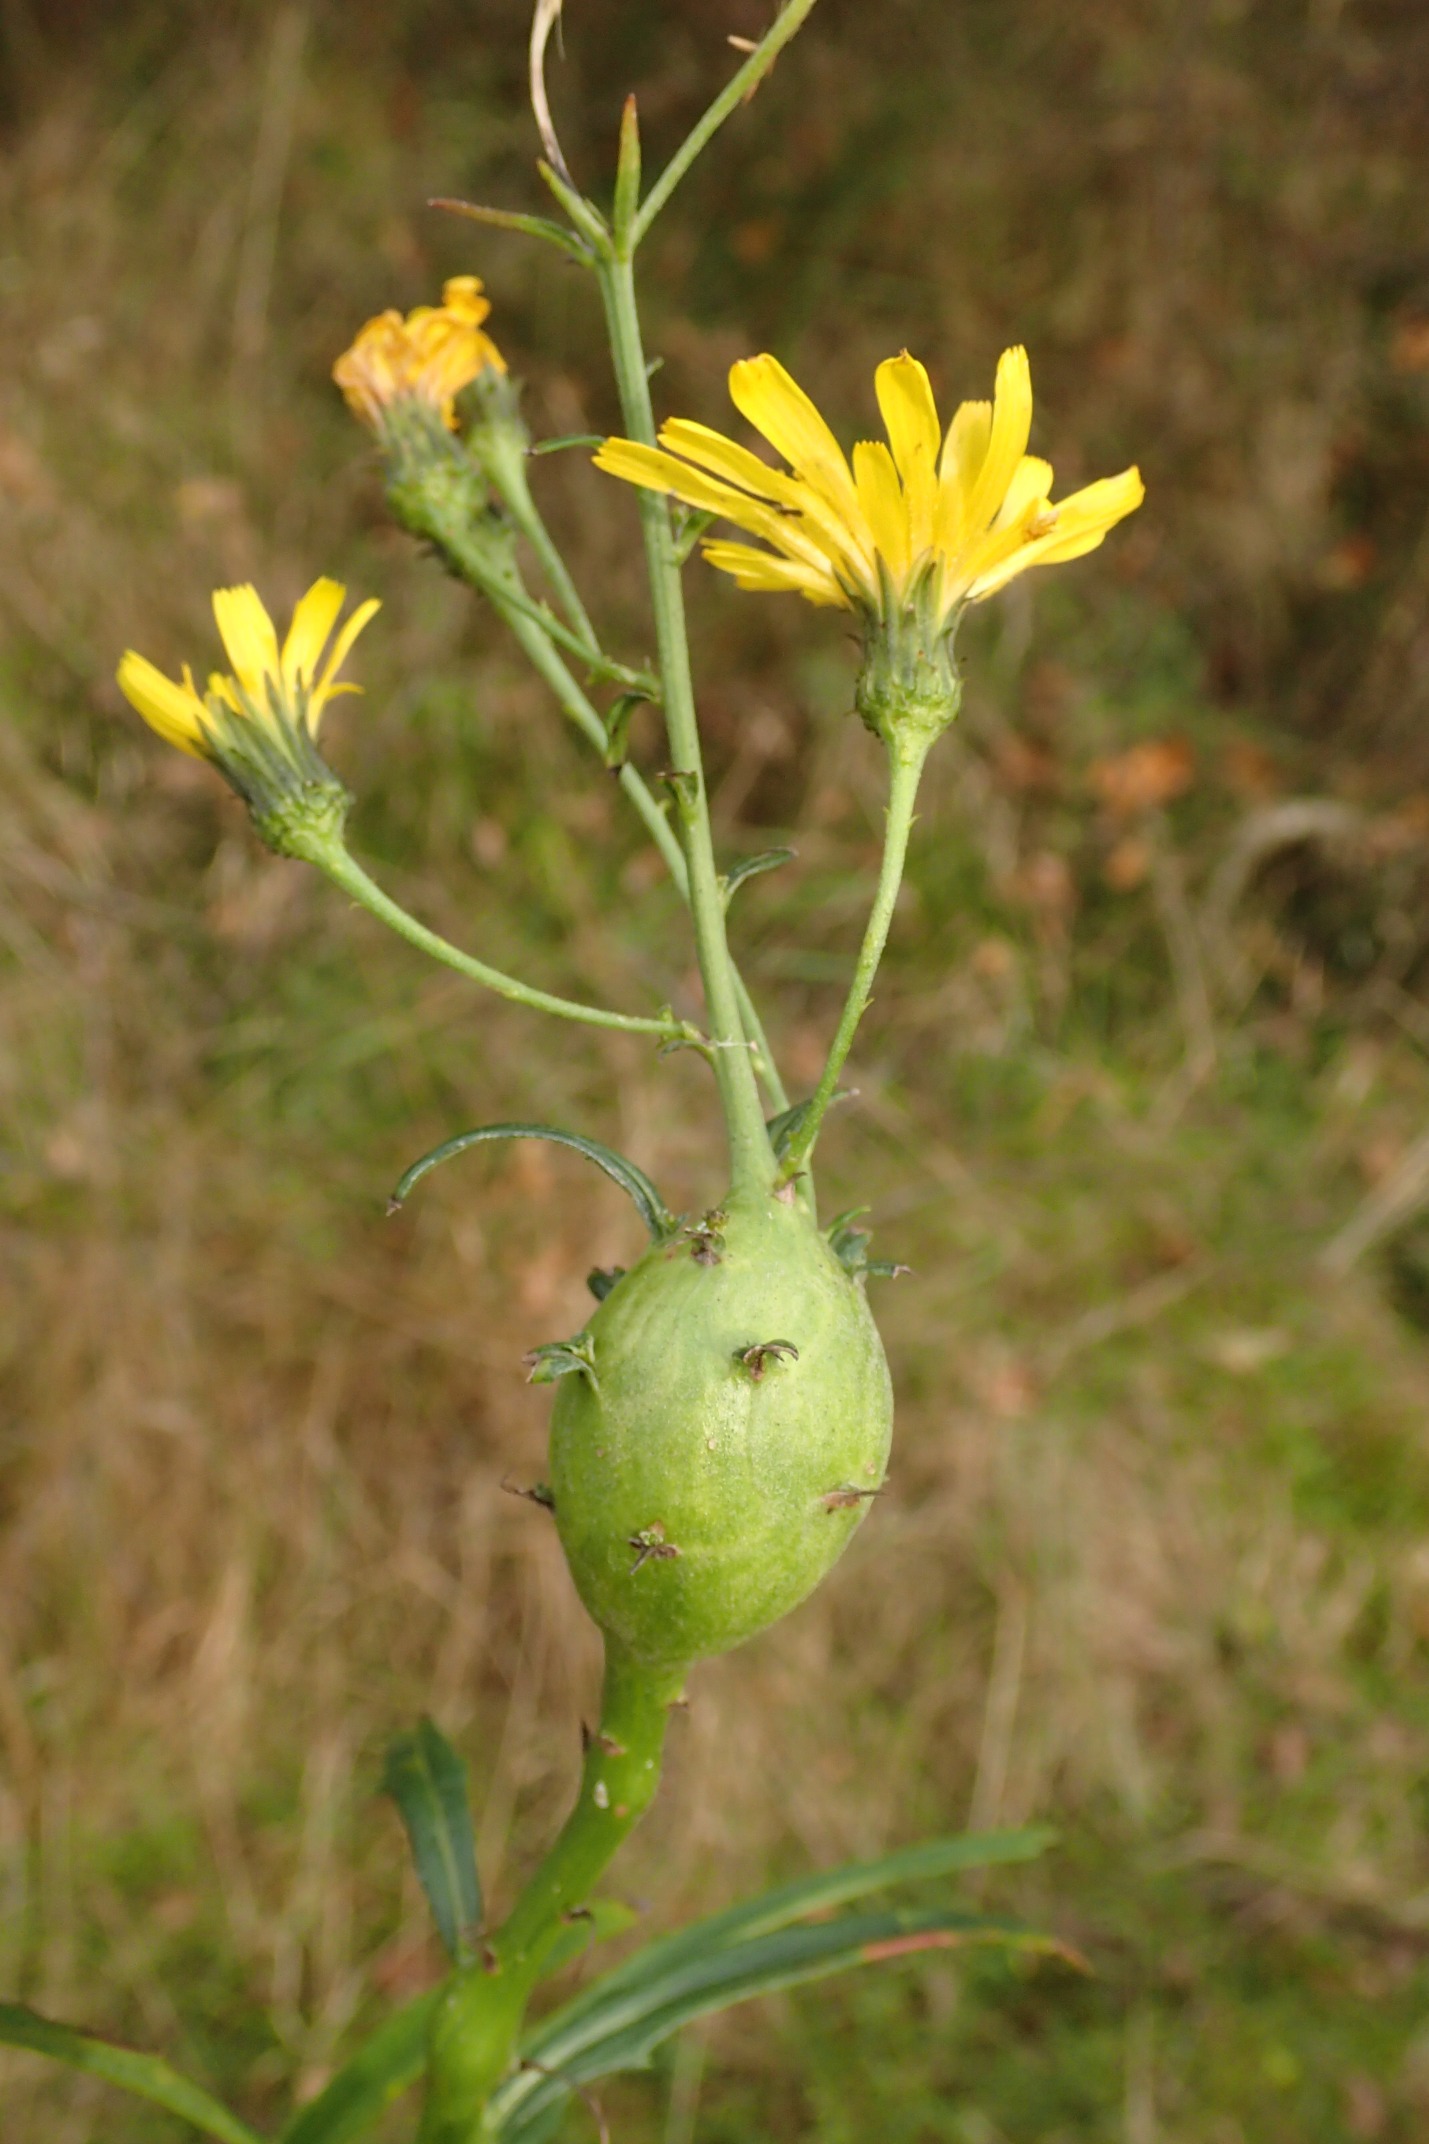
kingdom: Animalia
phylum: Arthropoda
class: Insecta
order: Hymenoptera
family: Cynipidae
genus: Aulacidea
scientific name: Aulacidea hieracii
